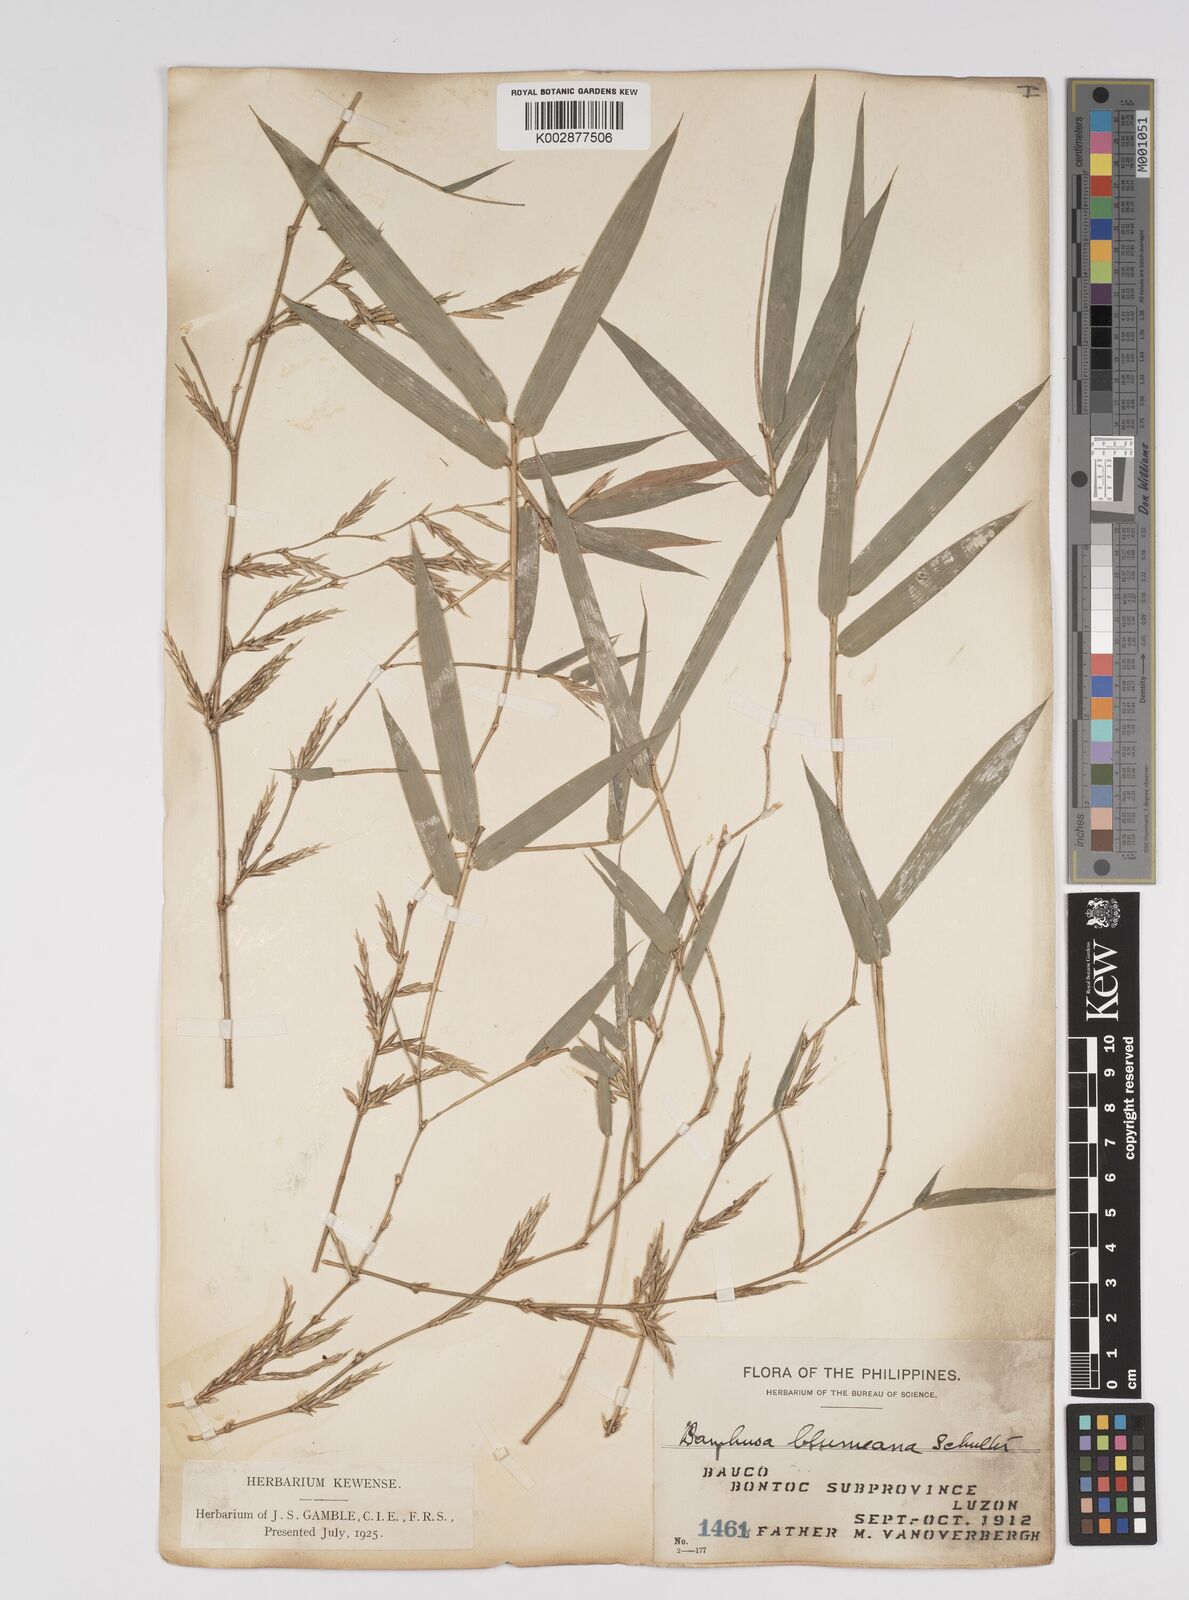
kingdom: Plantae
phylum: Tracheophyta
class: Liliopsida
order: Poales
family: Poaceae
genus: Bambusa
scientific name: Bambusa spinosa
